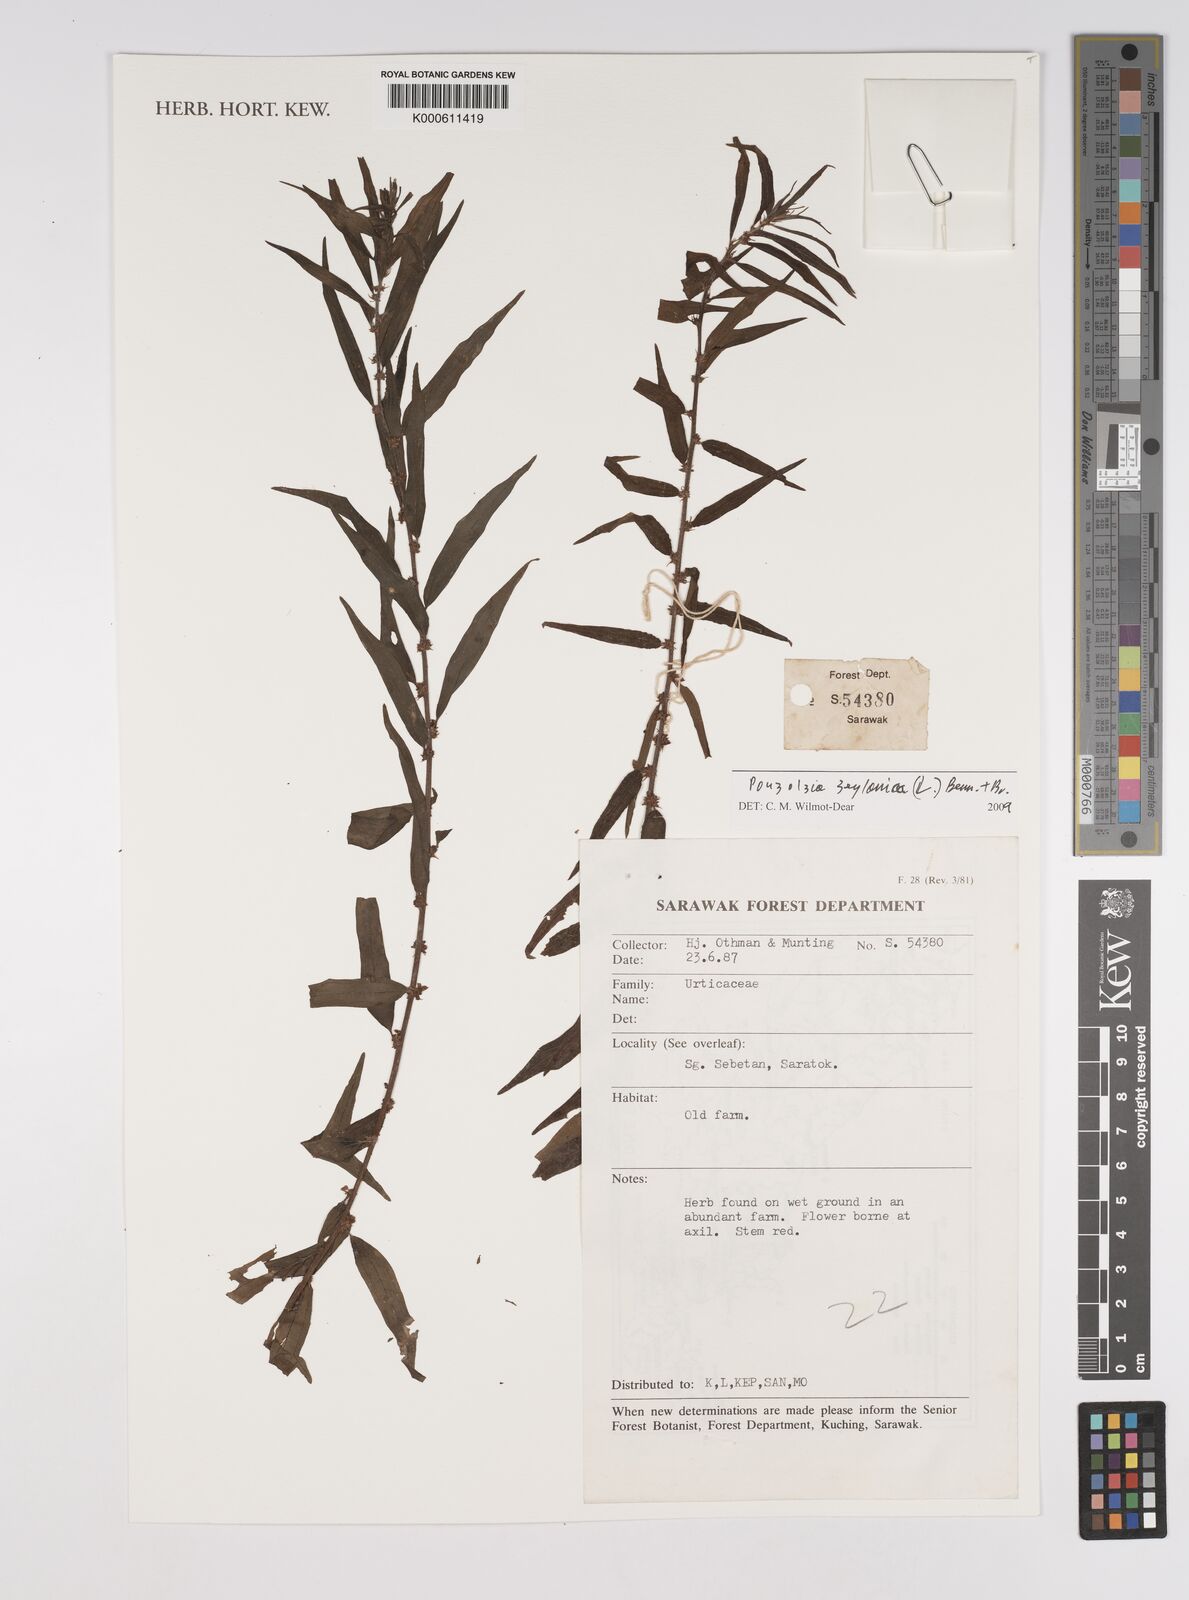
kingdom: Plantae
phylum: Tracheophyta
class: Magnoliopsida
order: Rosales
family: Urticaceae
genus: Pouzolzia
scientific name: Pouzolzia zeylanica
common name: Graceful pouzolzsbush
